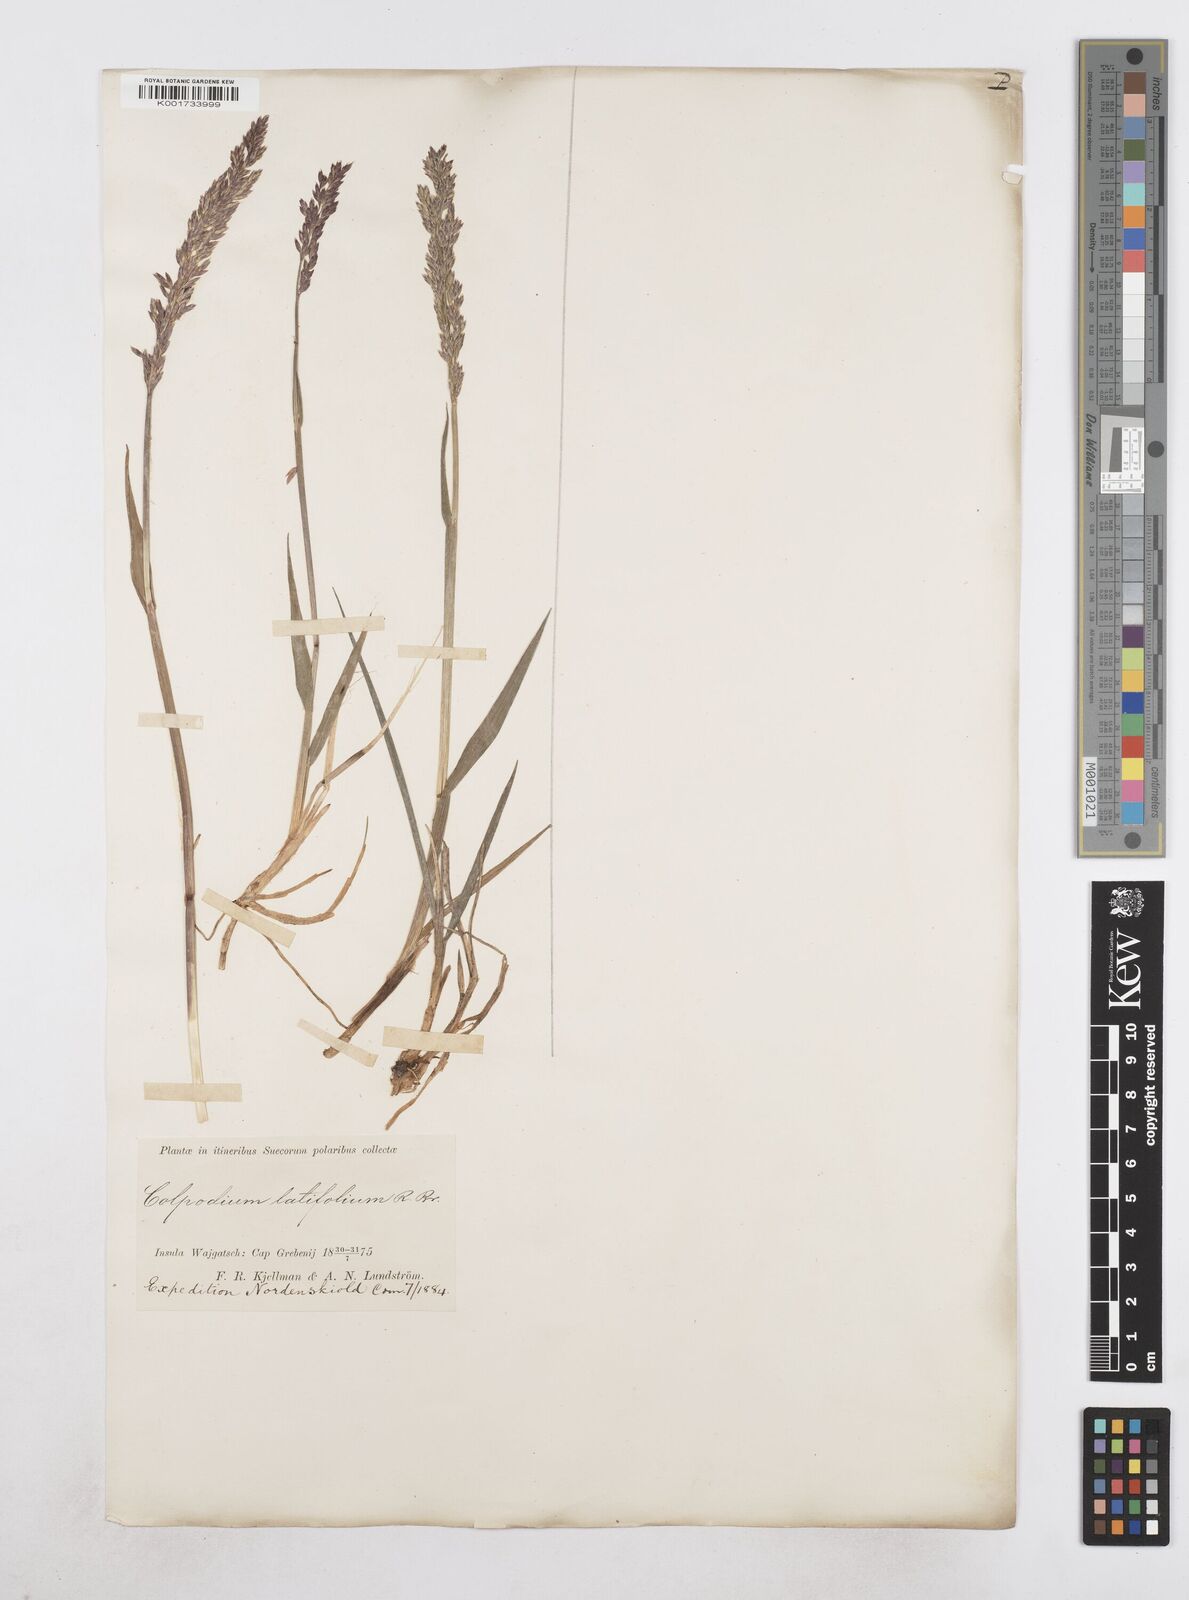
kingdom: Plantae
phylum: Tracheophyta
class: Liliopsida
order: Poales
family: Poaceae
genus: Arctagrostis
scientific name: Arctagrostis latifolia
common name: Arctic grass
